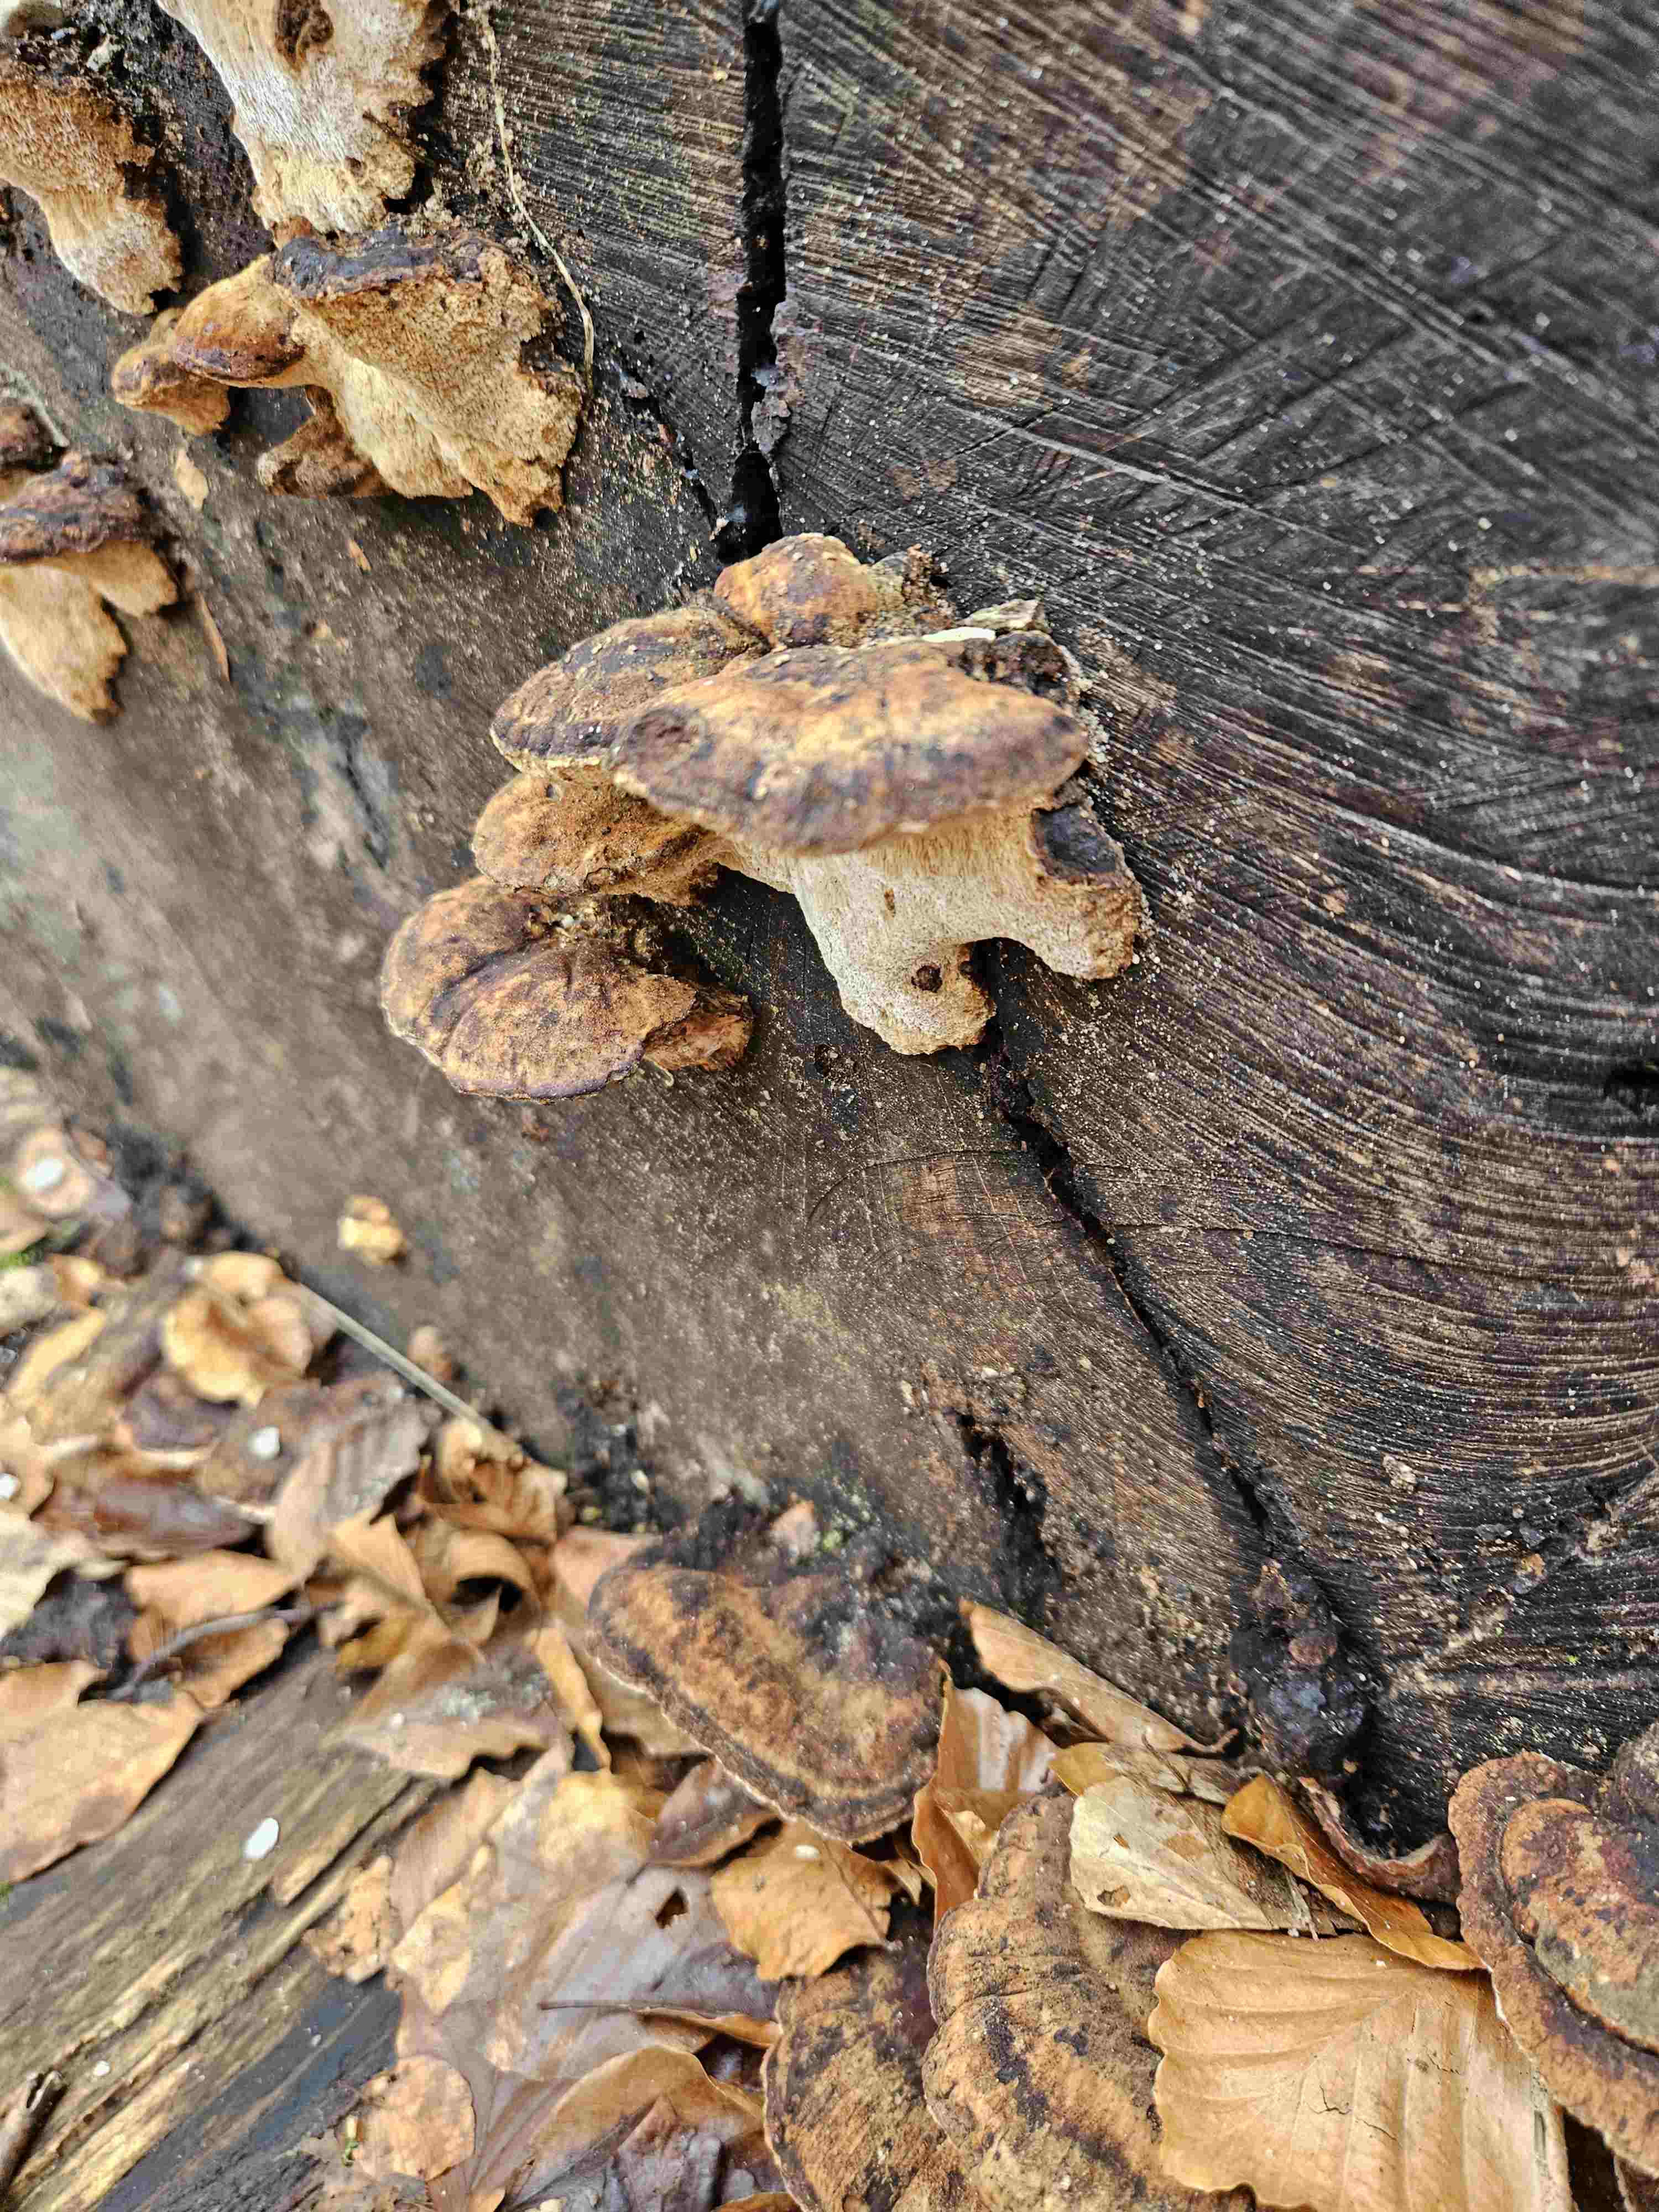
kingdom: Fungi
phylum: Basidiomycota
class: Agaricomycetes
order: Polyporales
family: Ischnodermataceae
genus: Ischnoderma
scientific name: Ischnoderma resinosum
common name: løv-tjæreporesvamp
